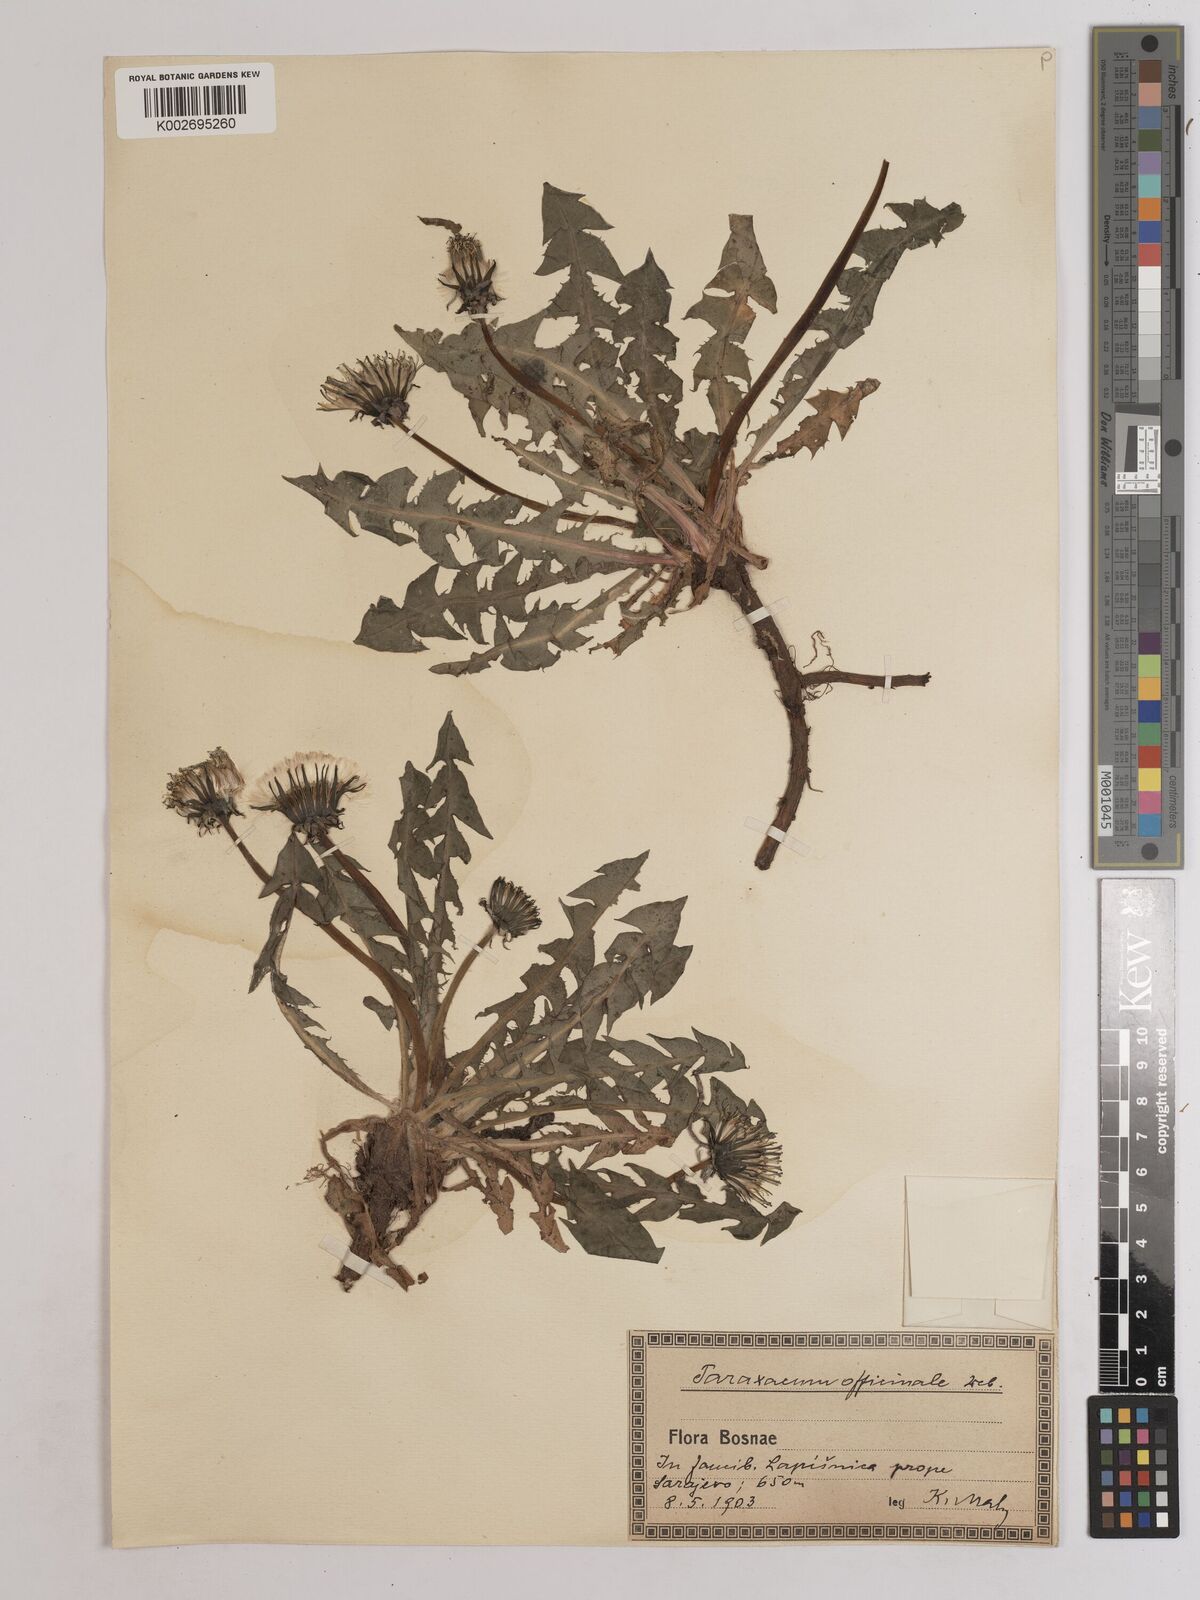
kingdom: Plantae
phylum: Tracheophyta
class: Magnoliopsida
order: Asterales
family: Asteraceae
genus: Taraxacum
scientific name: Taraxacum officinale
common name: Common dandelion
